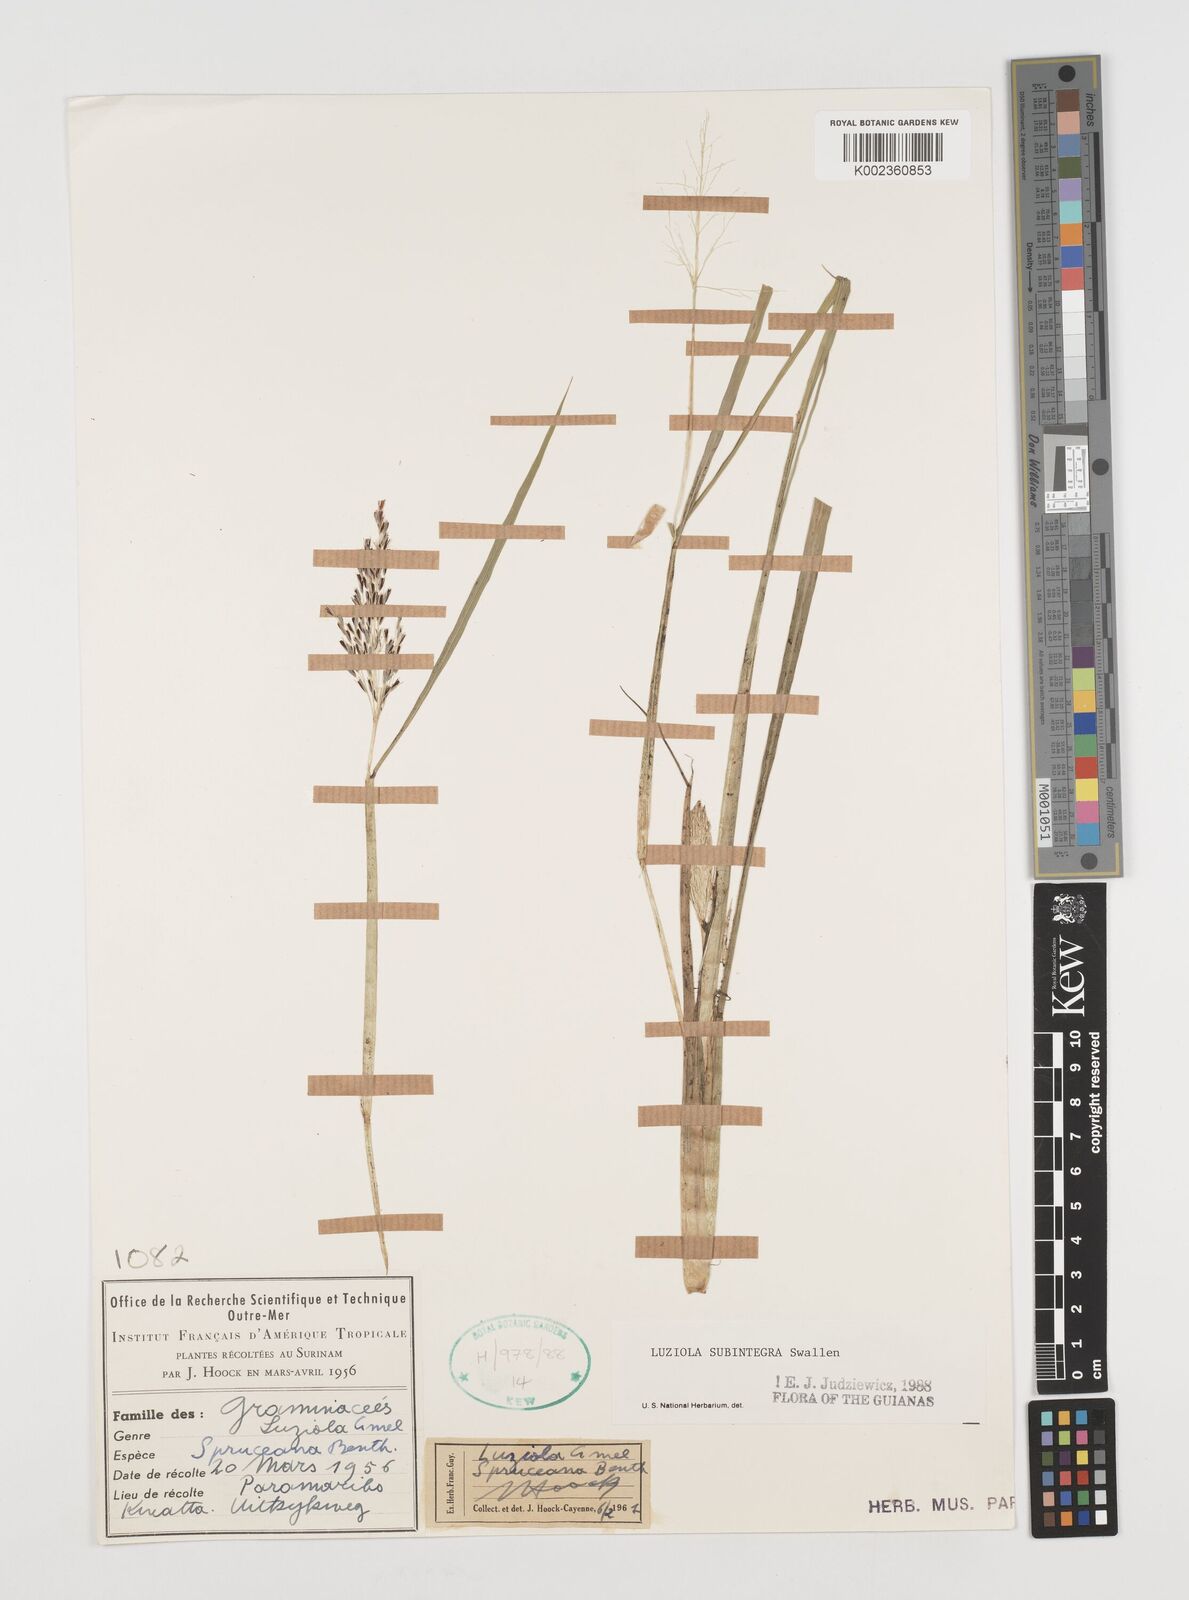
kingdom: Plantae
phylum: Tracheophyta
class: Liliopsida
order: Poales
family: Poaceae
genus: Luziola
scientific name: Luziola subintegra
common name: Large watergrass
